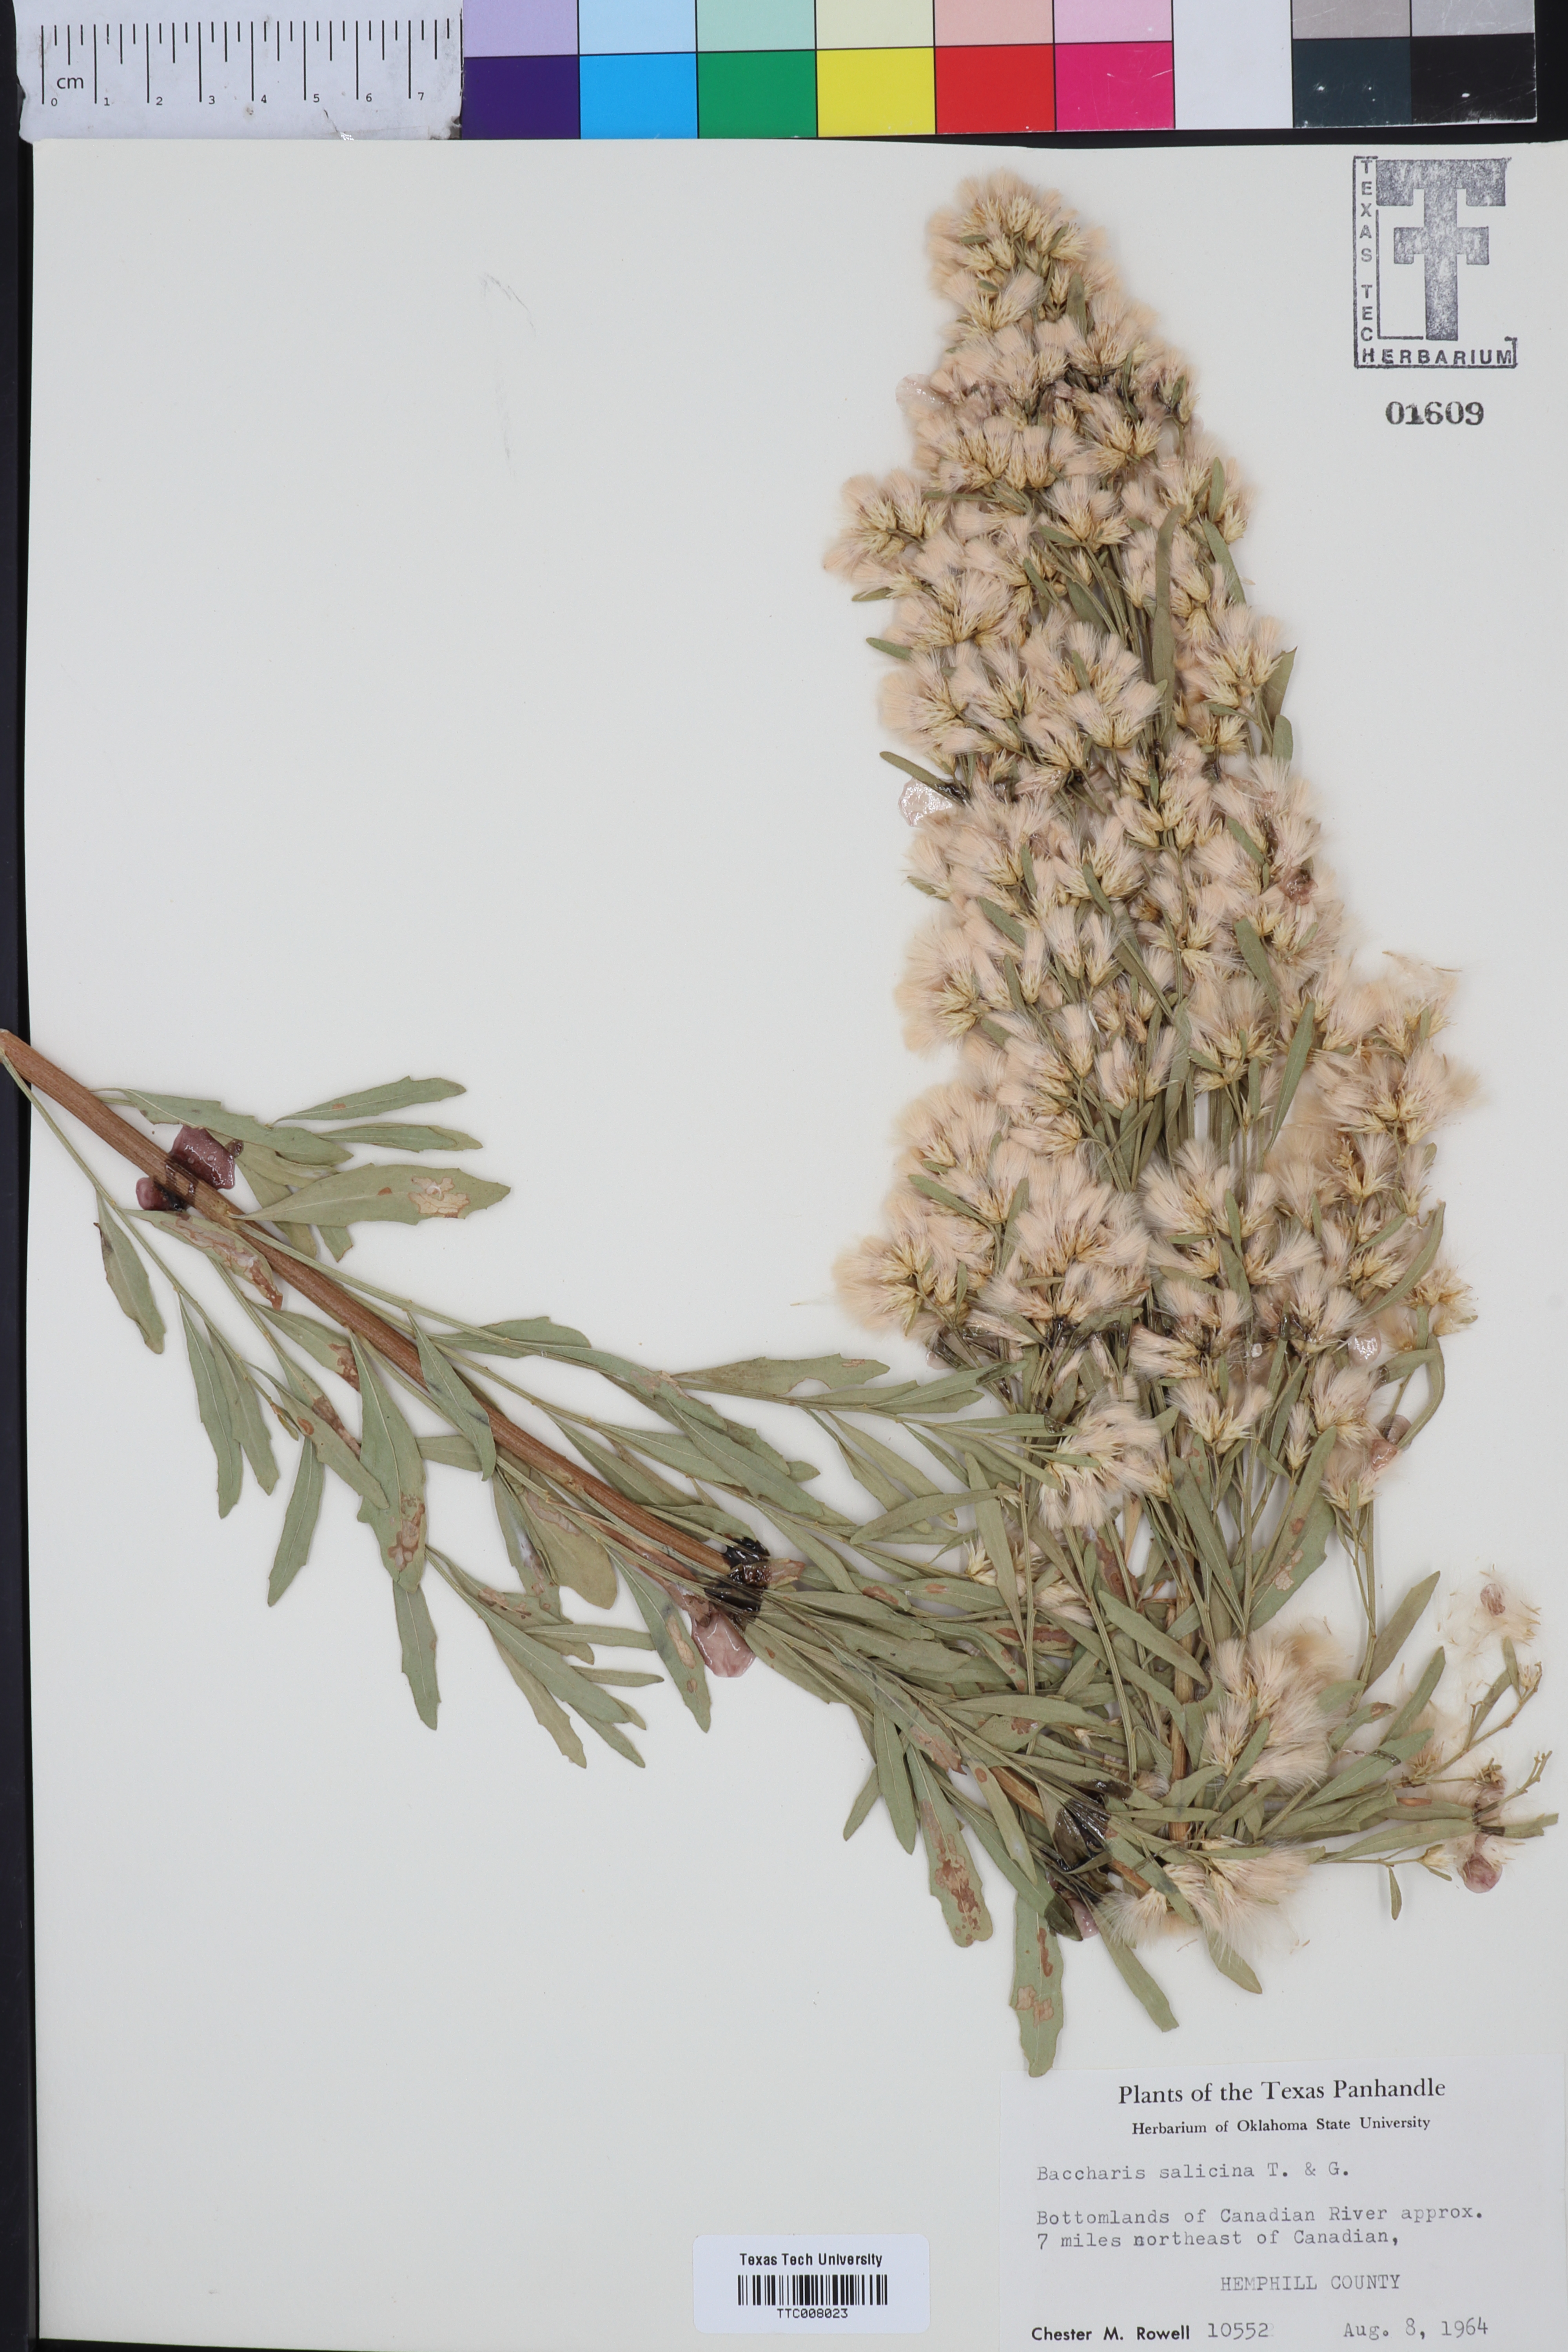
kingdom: Plantae
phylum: Tracheophyta
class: Magnoliopsida
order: Asterales
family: Asteraceae
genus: Baccharis
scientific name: Baccharis salicina
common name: Willow baccharis
